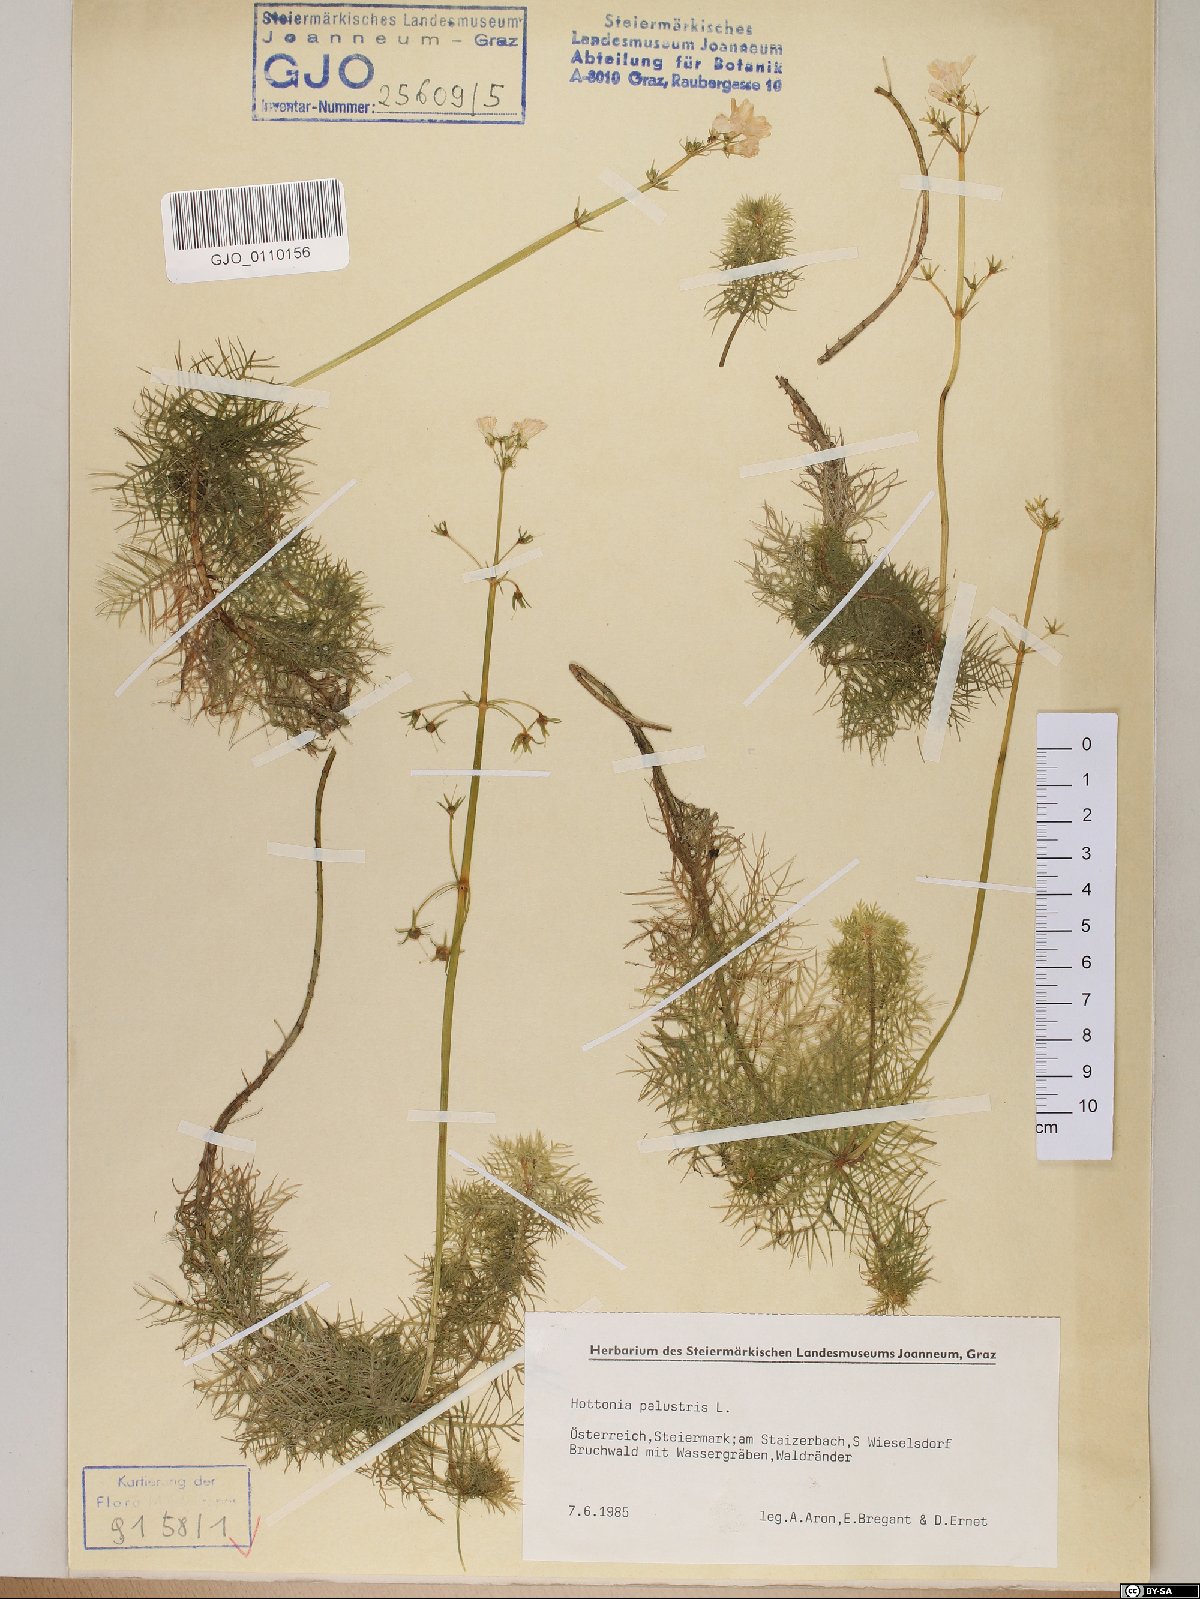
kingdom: Plantae
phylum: Tracheophyta
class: Magnoliopsida
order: Ericales
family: Primulaceae
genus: Hottonia
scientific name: Hottonia palustris
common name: Water-violet
